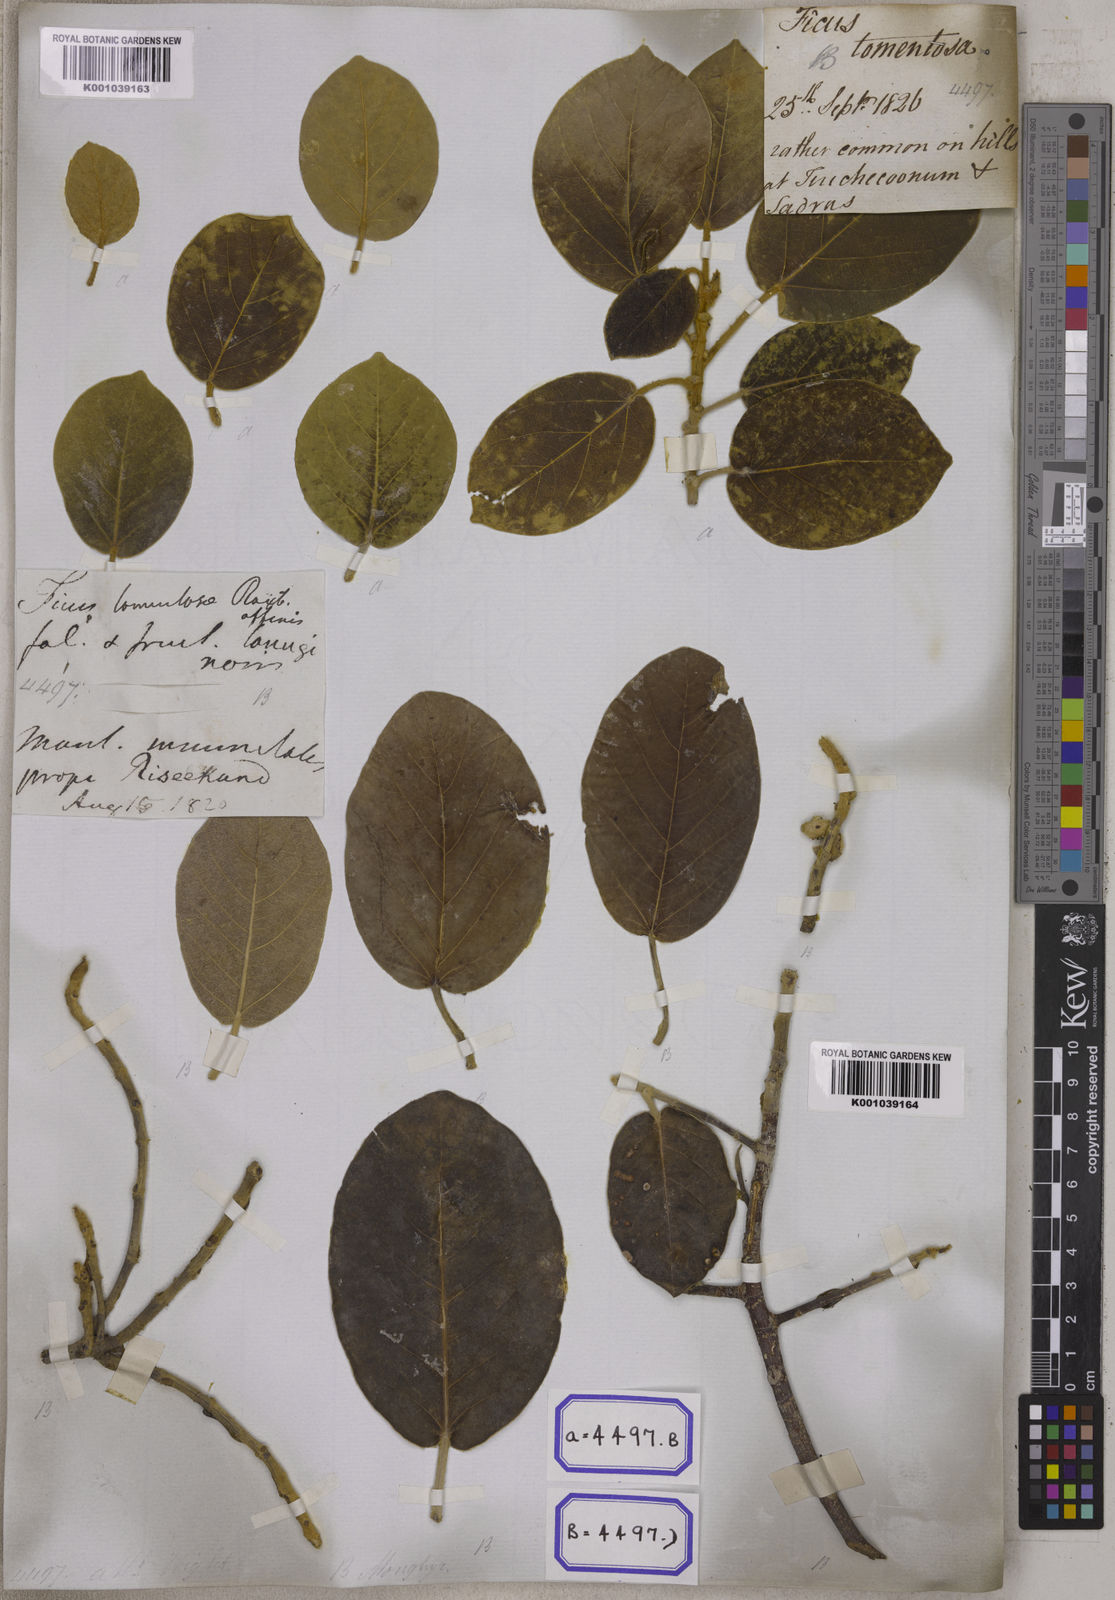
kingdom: Plantae
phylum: Tracheophyta
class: Magnoliopsida
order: Rosales
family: Moraceae
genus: Ficus
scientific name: Ficus mollis
